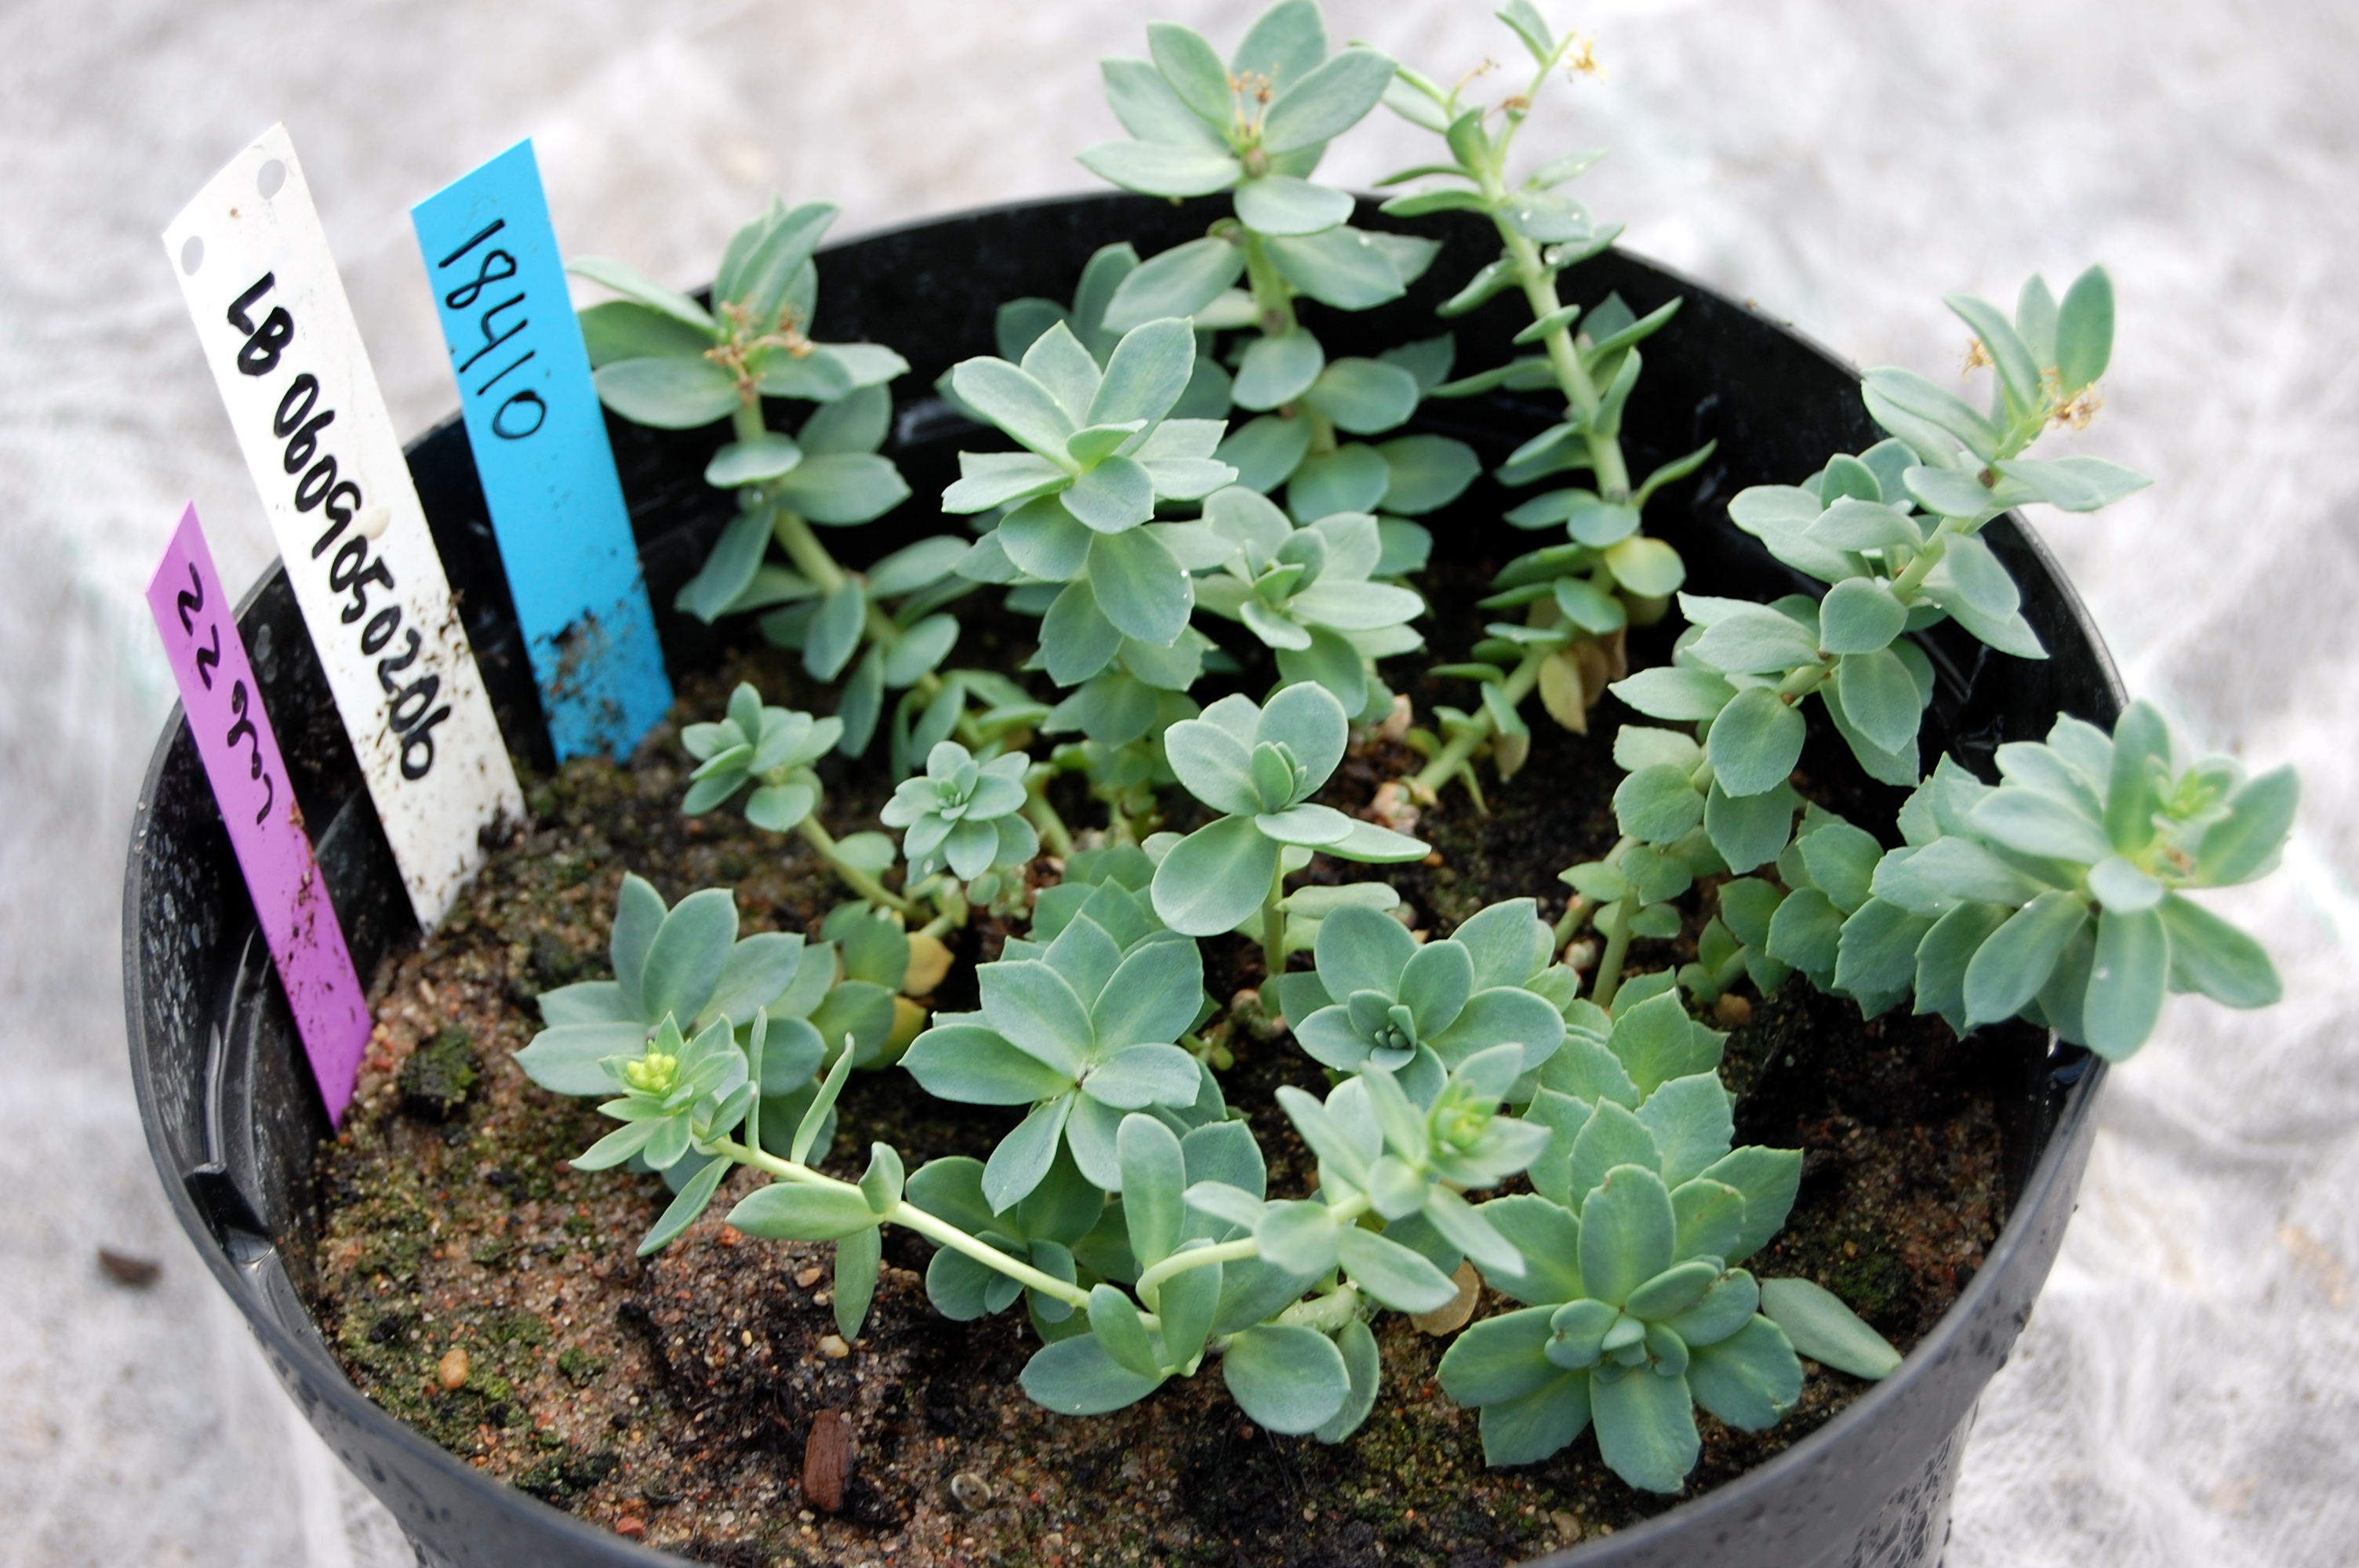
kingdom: Plantae
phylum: Tracheophyta
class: Magnoliopsida
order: Saxifragales
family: Crassulaceae
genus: Rhodiola
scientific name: Rhodiola rosea
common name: Roseroot
